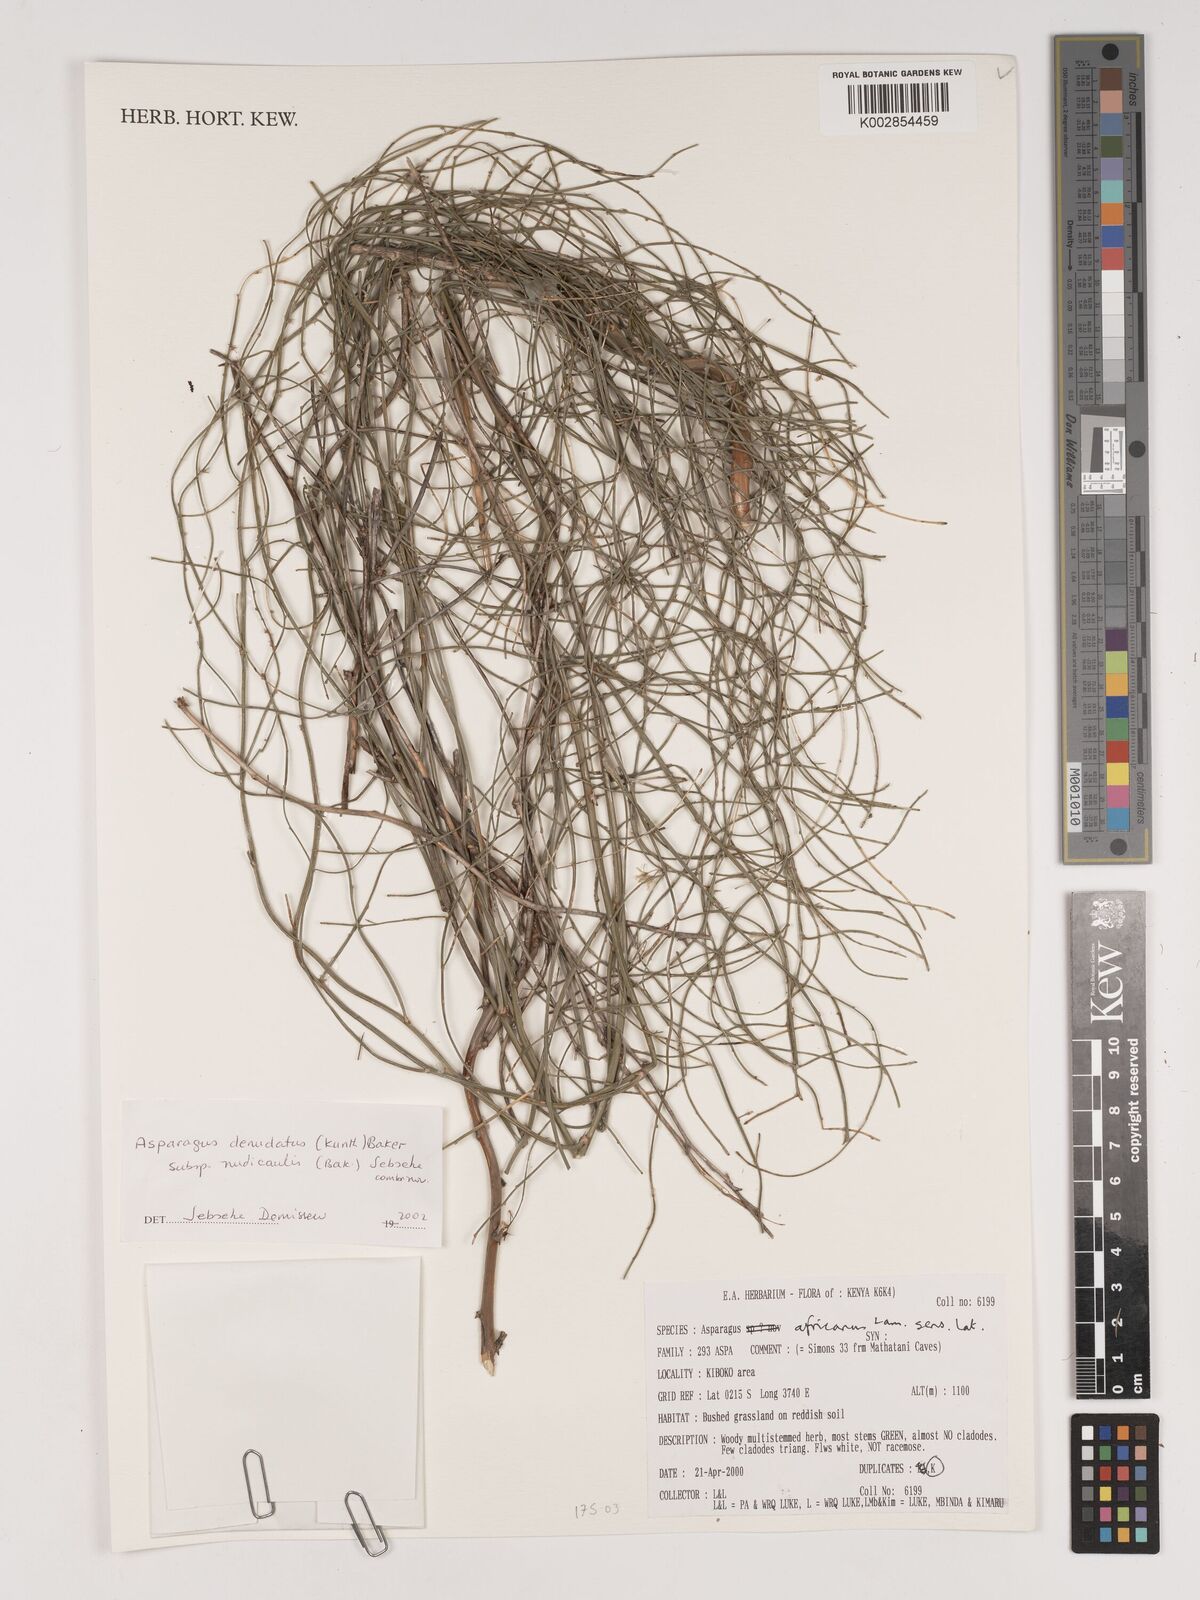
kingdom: Plantae
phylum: Tracheophyta
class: Liliopsida
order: Asparagales
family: Asparagaceae
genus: Asparagus
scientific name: Asparagus denudatus
